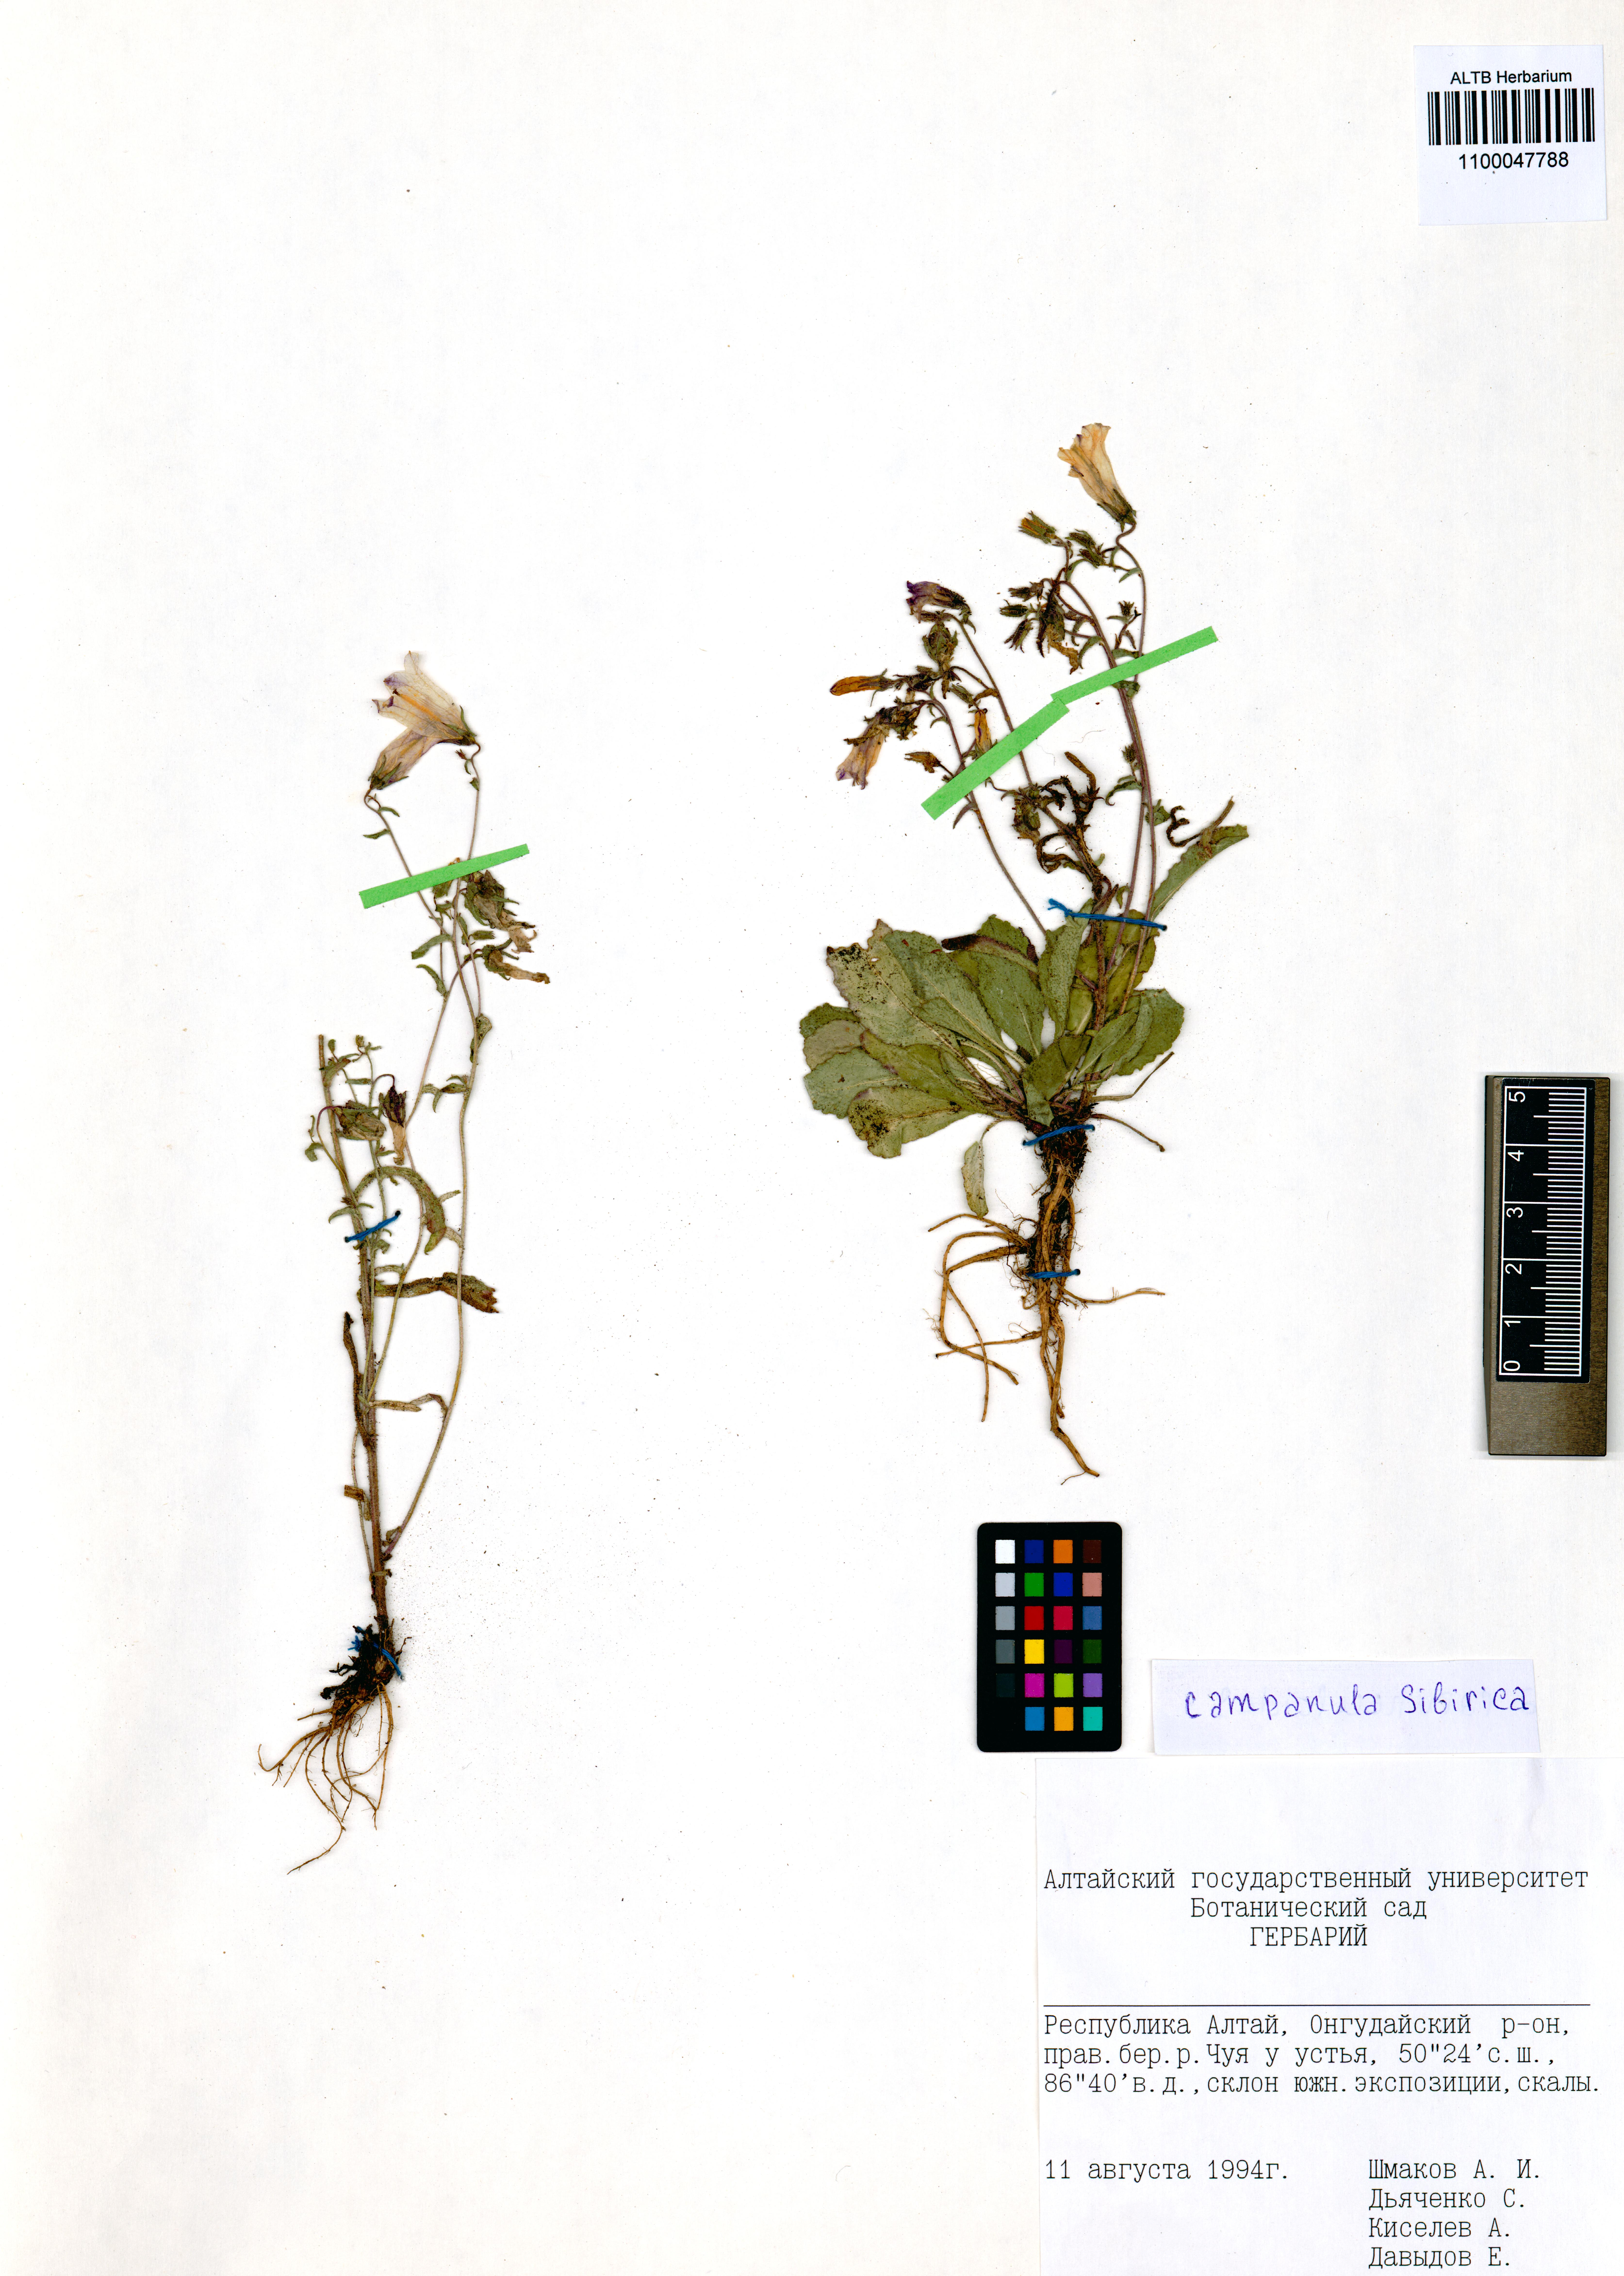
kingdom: Plantae
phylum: Tracheophyta
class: Magnoliopsida
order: Asterales
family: Campanulaceae
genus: Campanula
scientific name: Campanula sibirica
